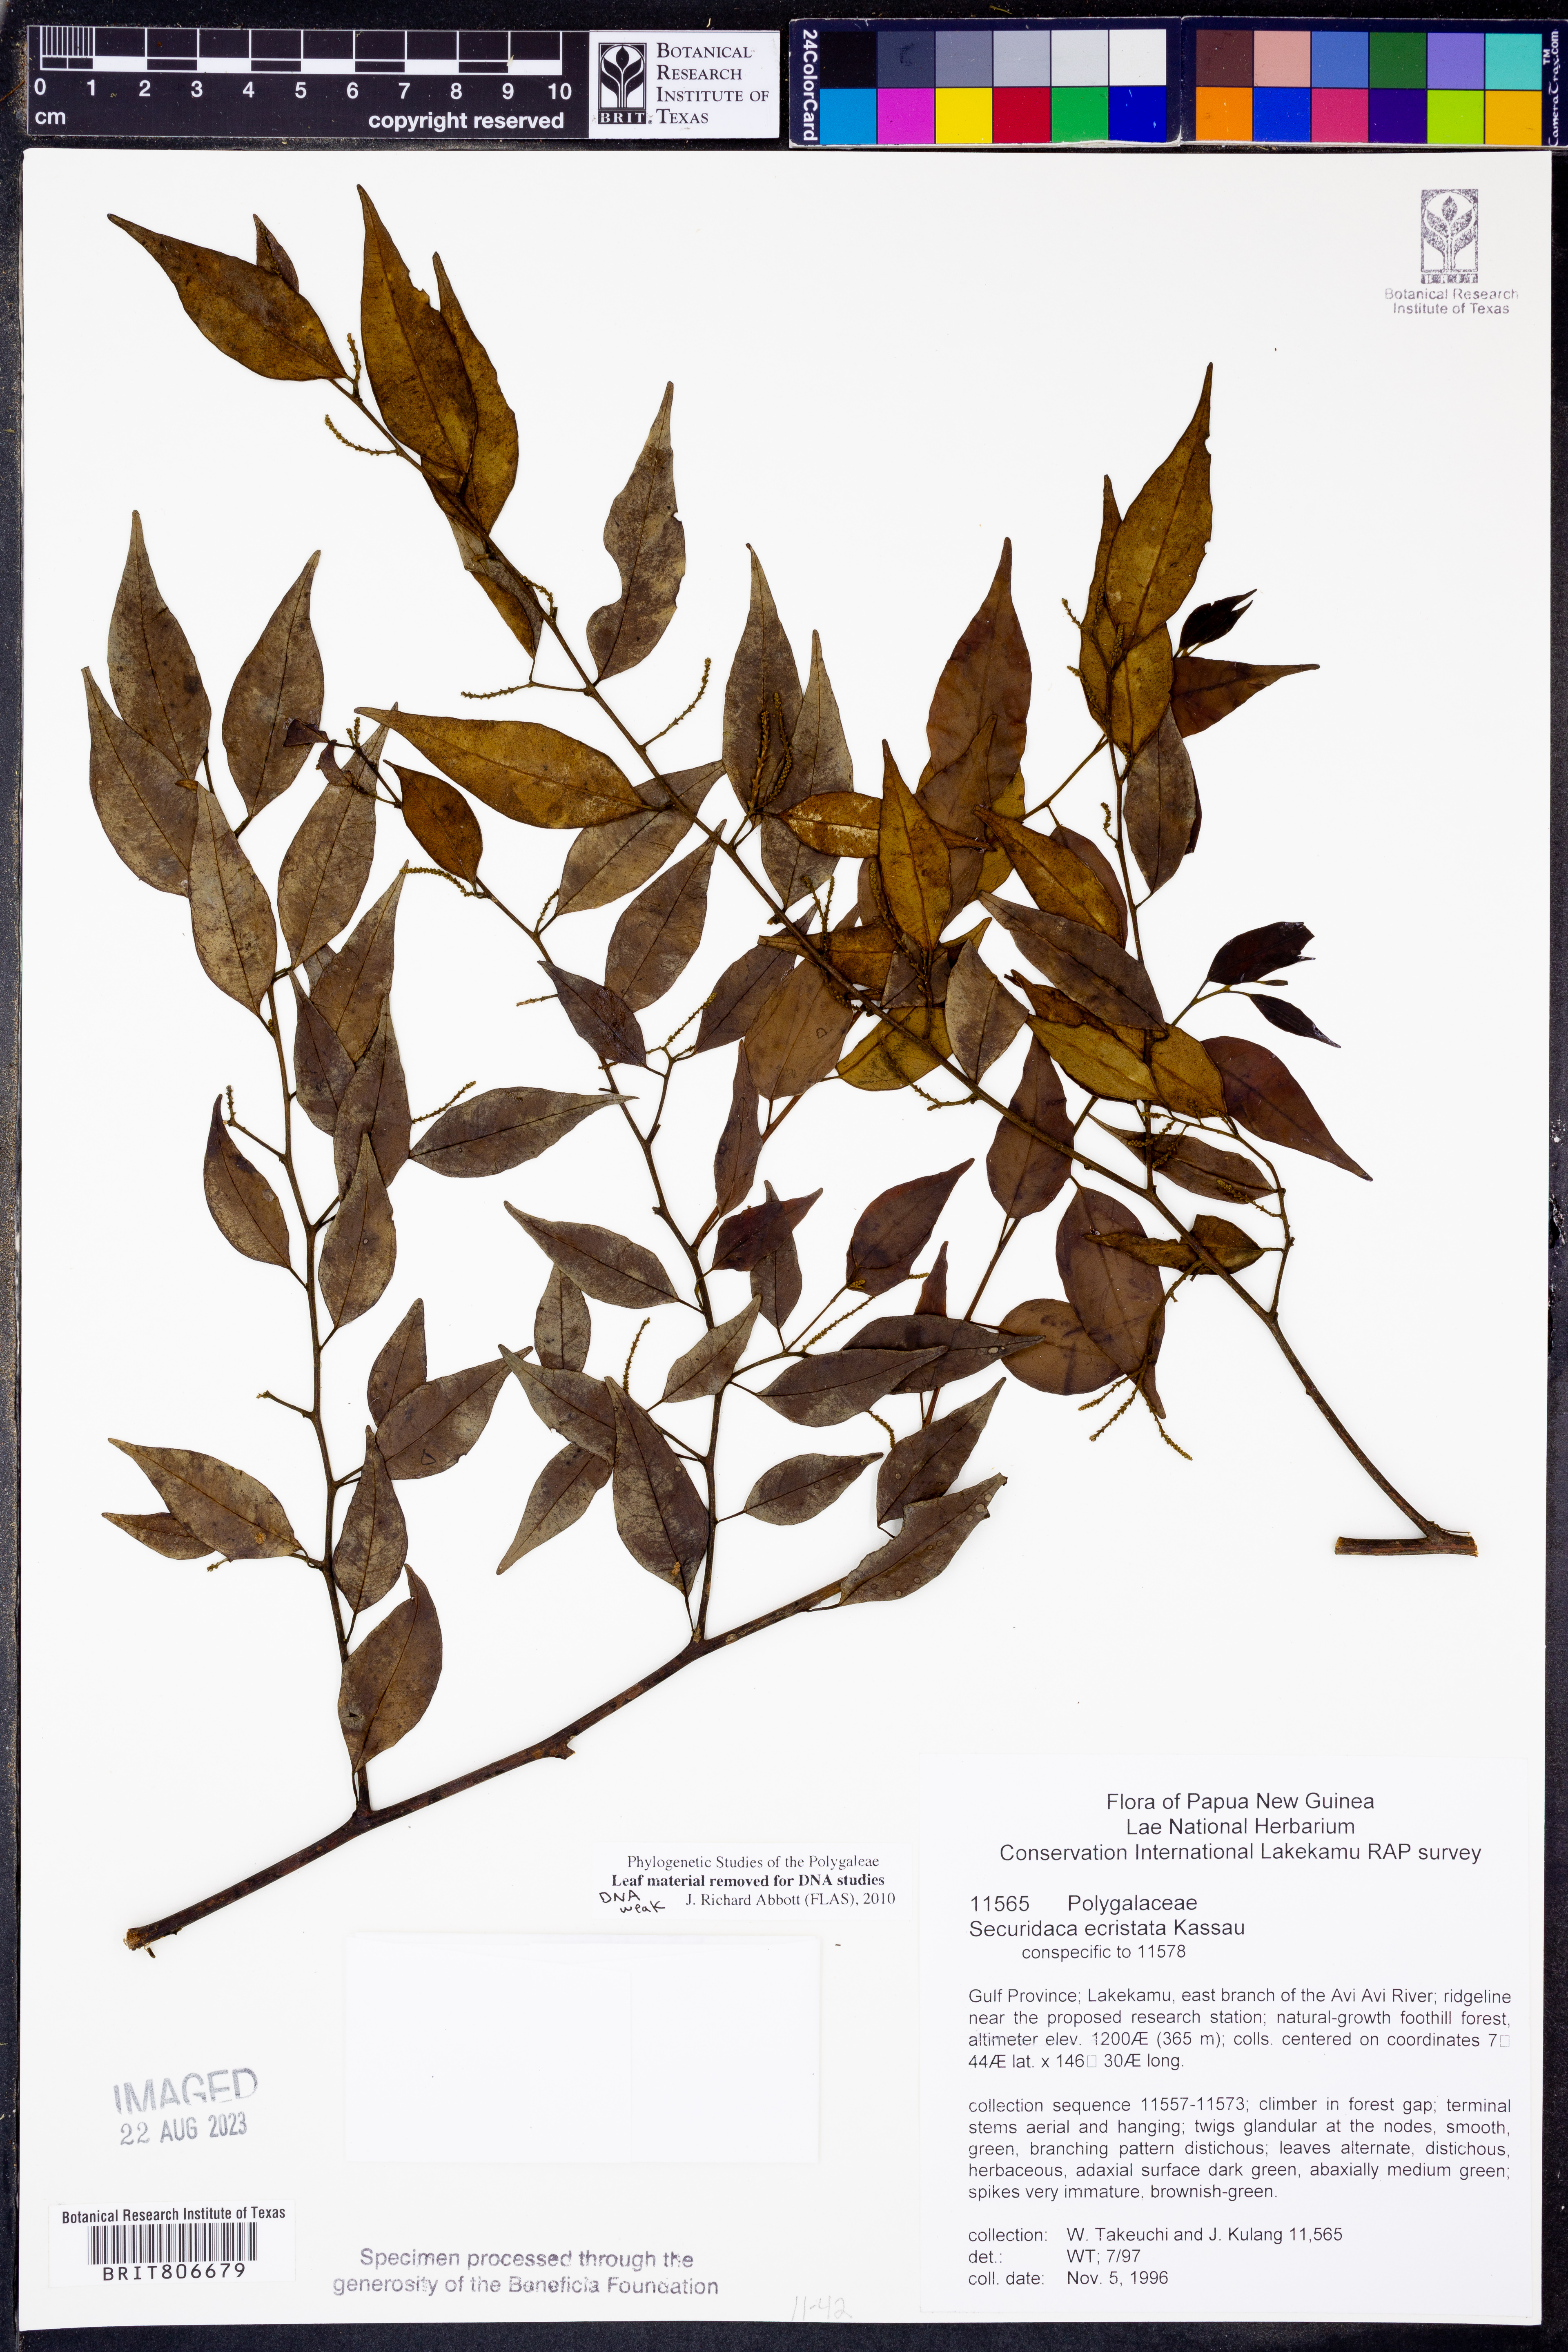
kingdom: Plantae
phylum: Tracheophyta
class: Magnoliopsida
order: Fabales
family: Polygalaceae
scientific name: Polygalaceae
